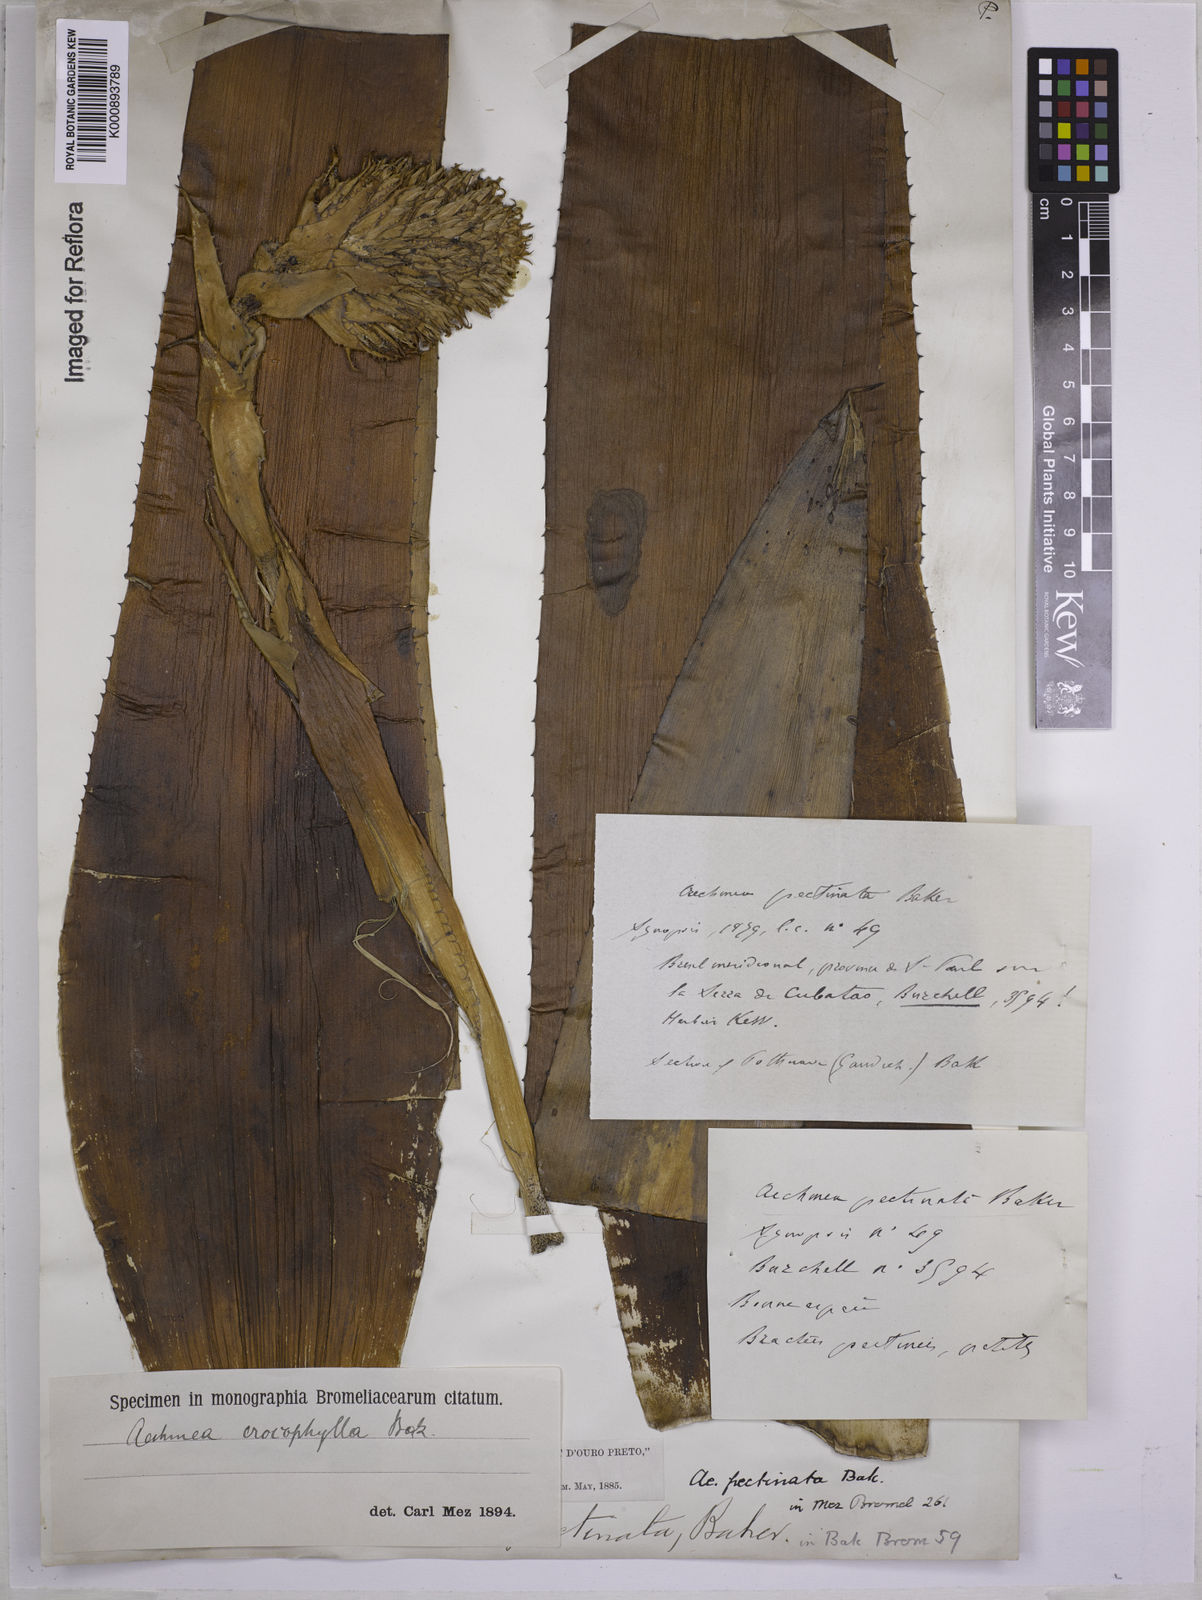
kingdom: Plantae
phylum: Tracheophyta
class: Liliopsida
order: Poales
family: Bromeliaceae
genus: Aechmea
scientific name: Aechmea pectinata
